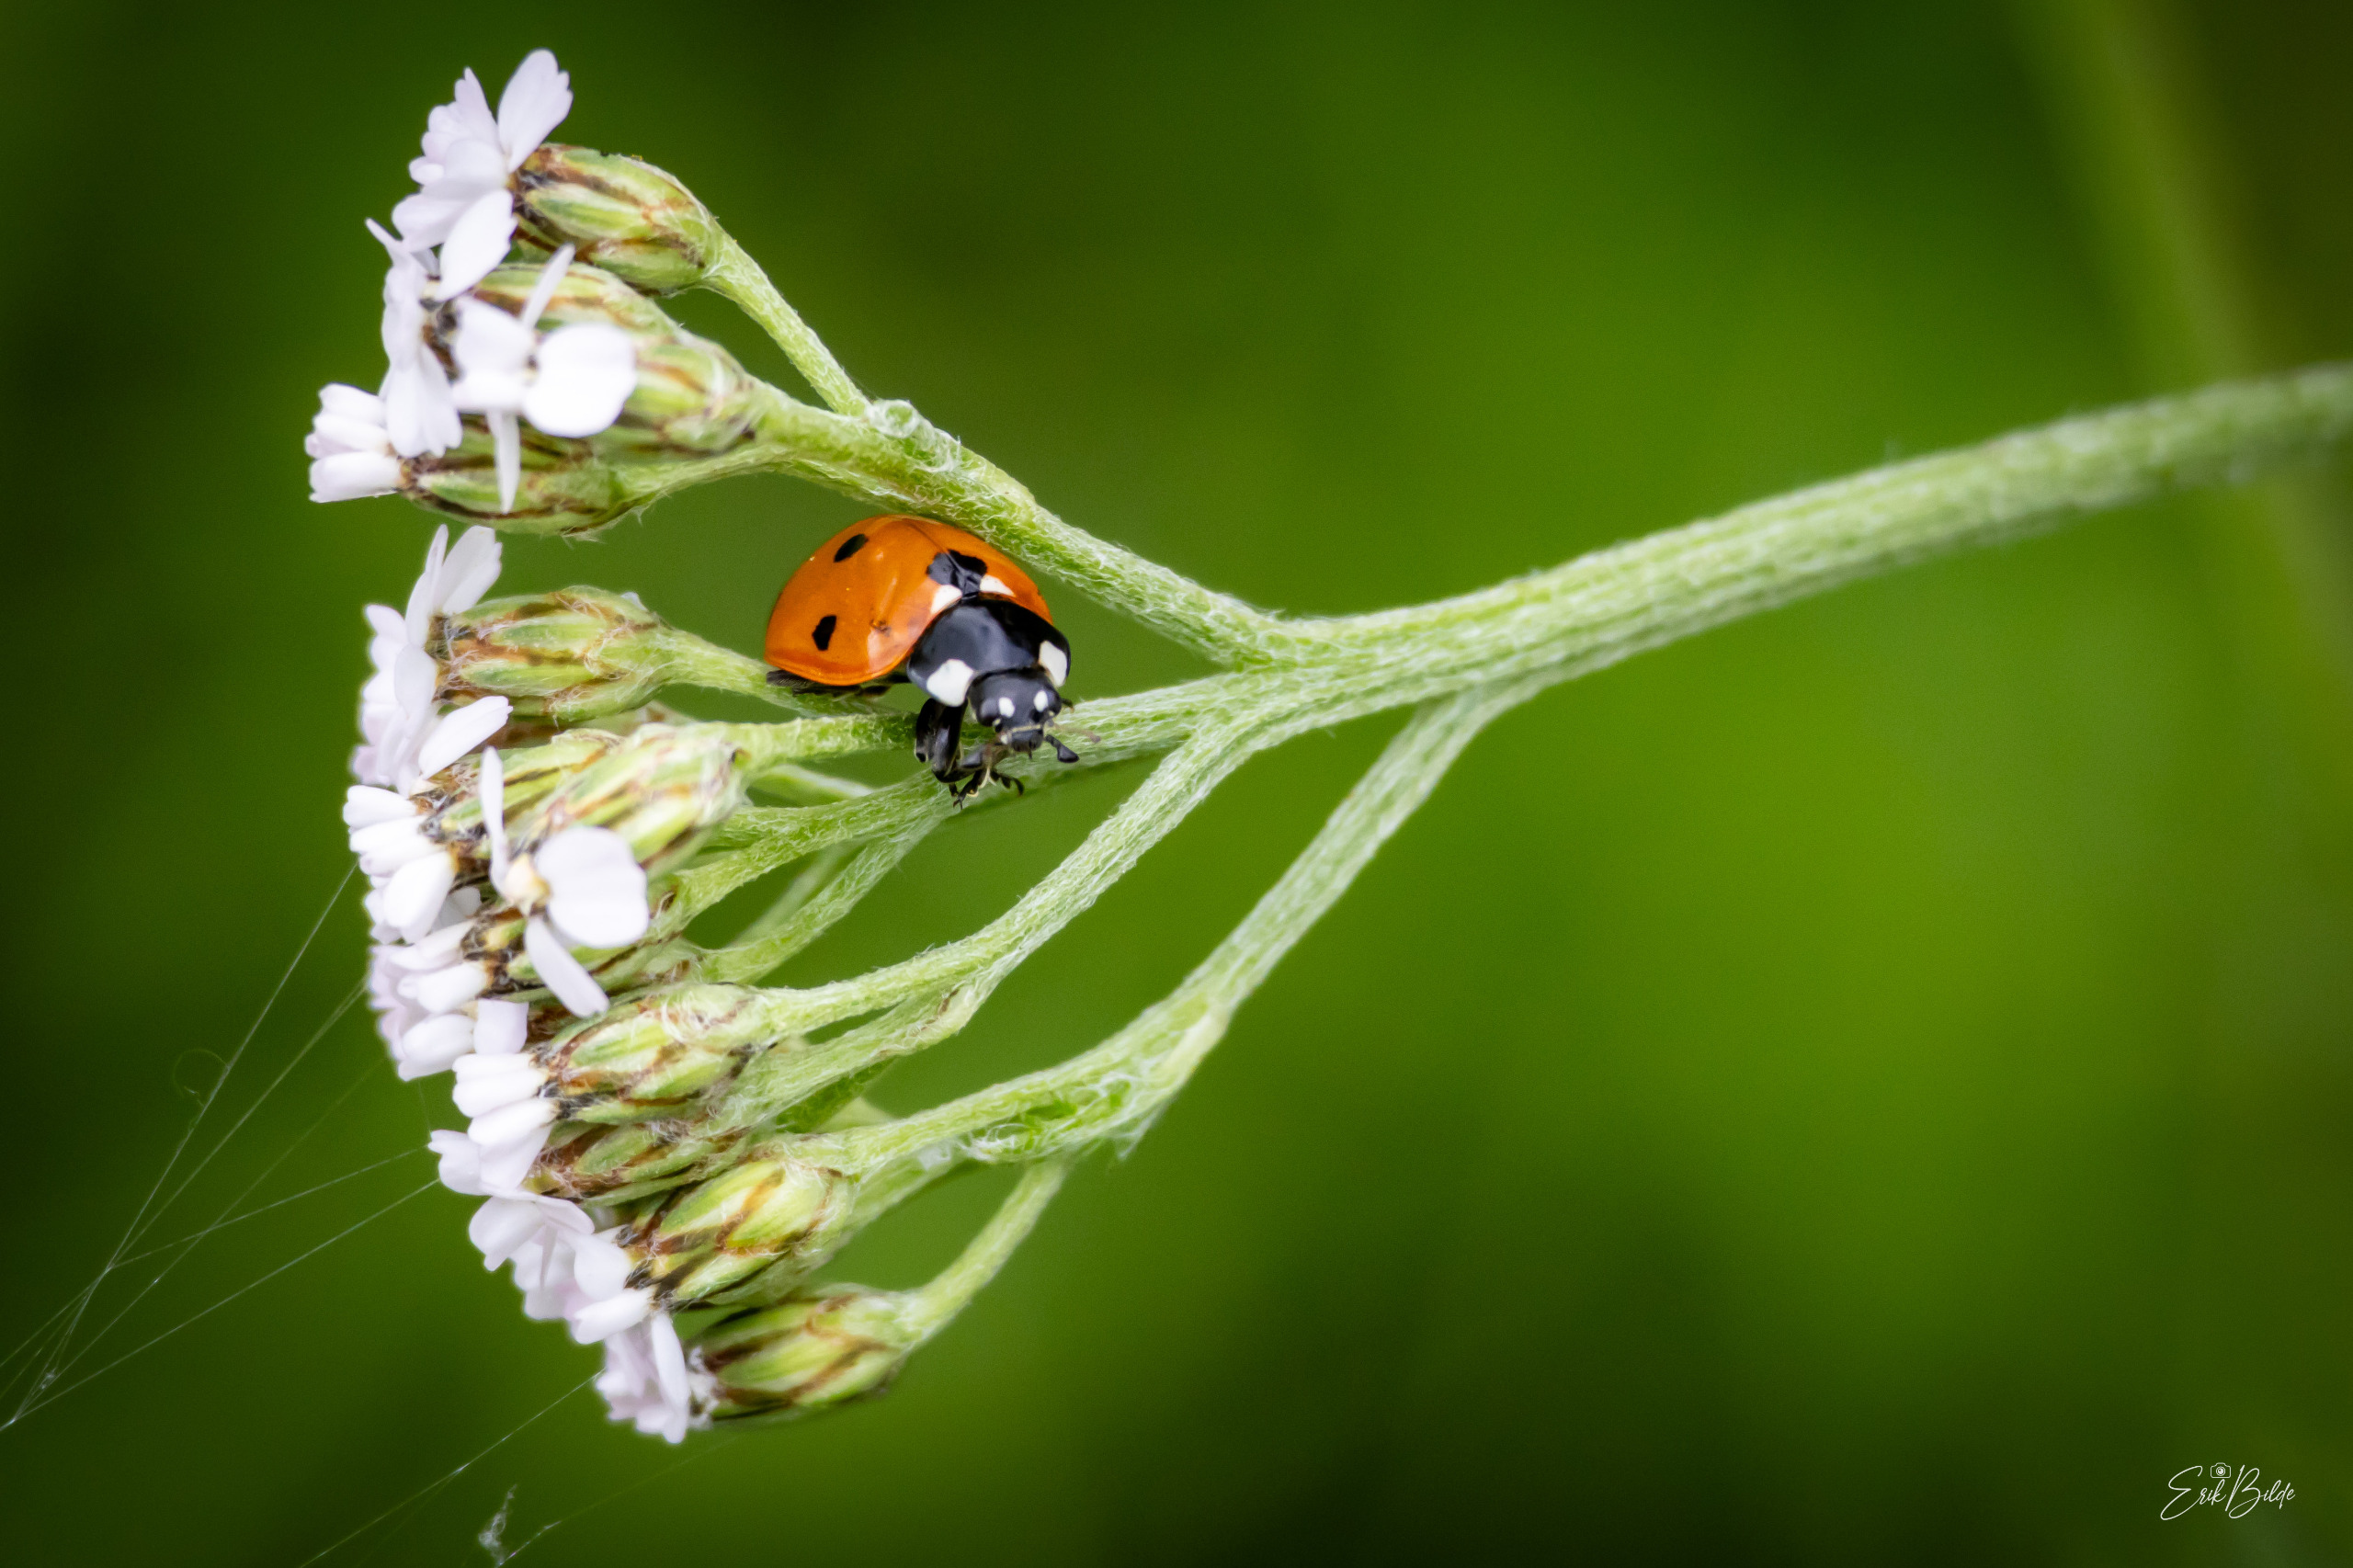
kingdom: Animalia
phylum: Arthropoda
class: Insecta
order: Coleoptera
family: Coccinellidae
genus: Coccinella
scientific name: Coccinella septempunctata
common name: Syvplettet mariehøne
